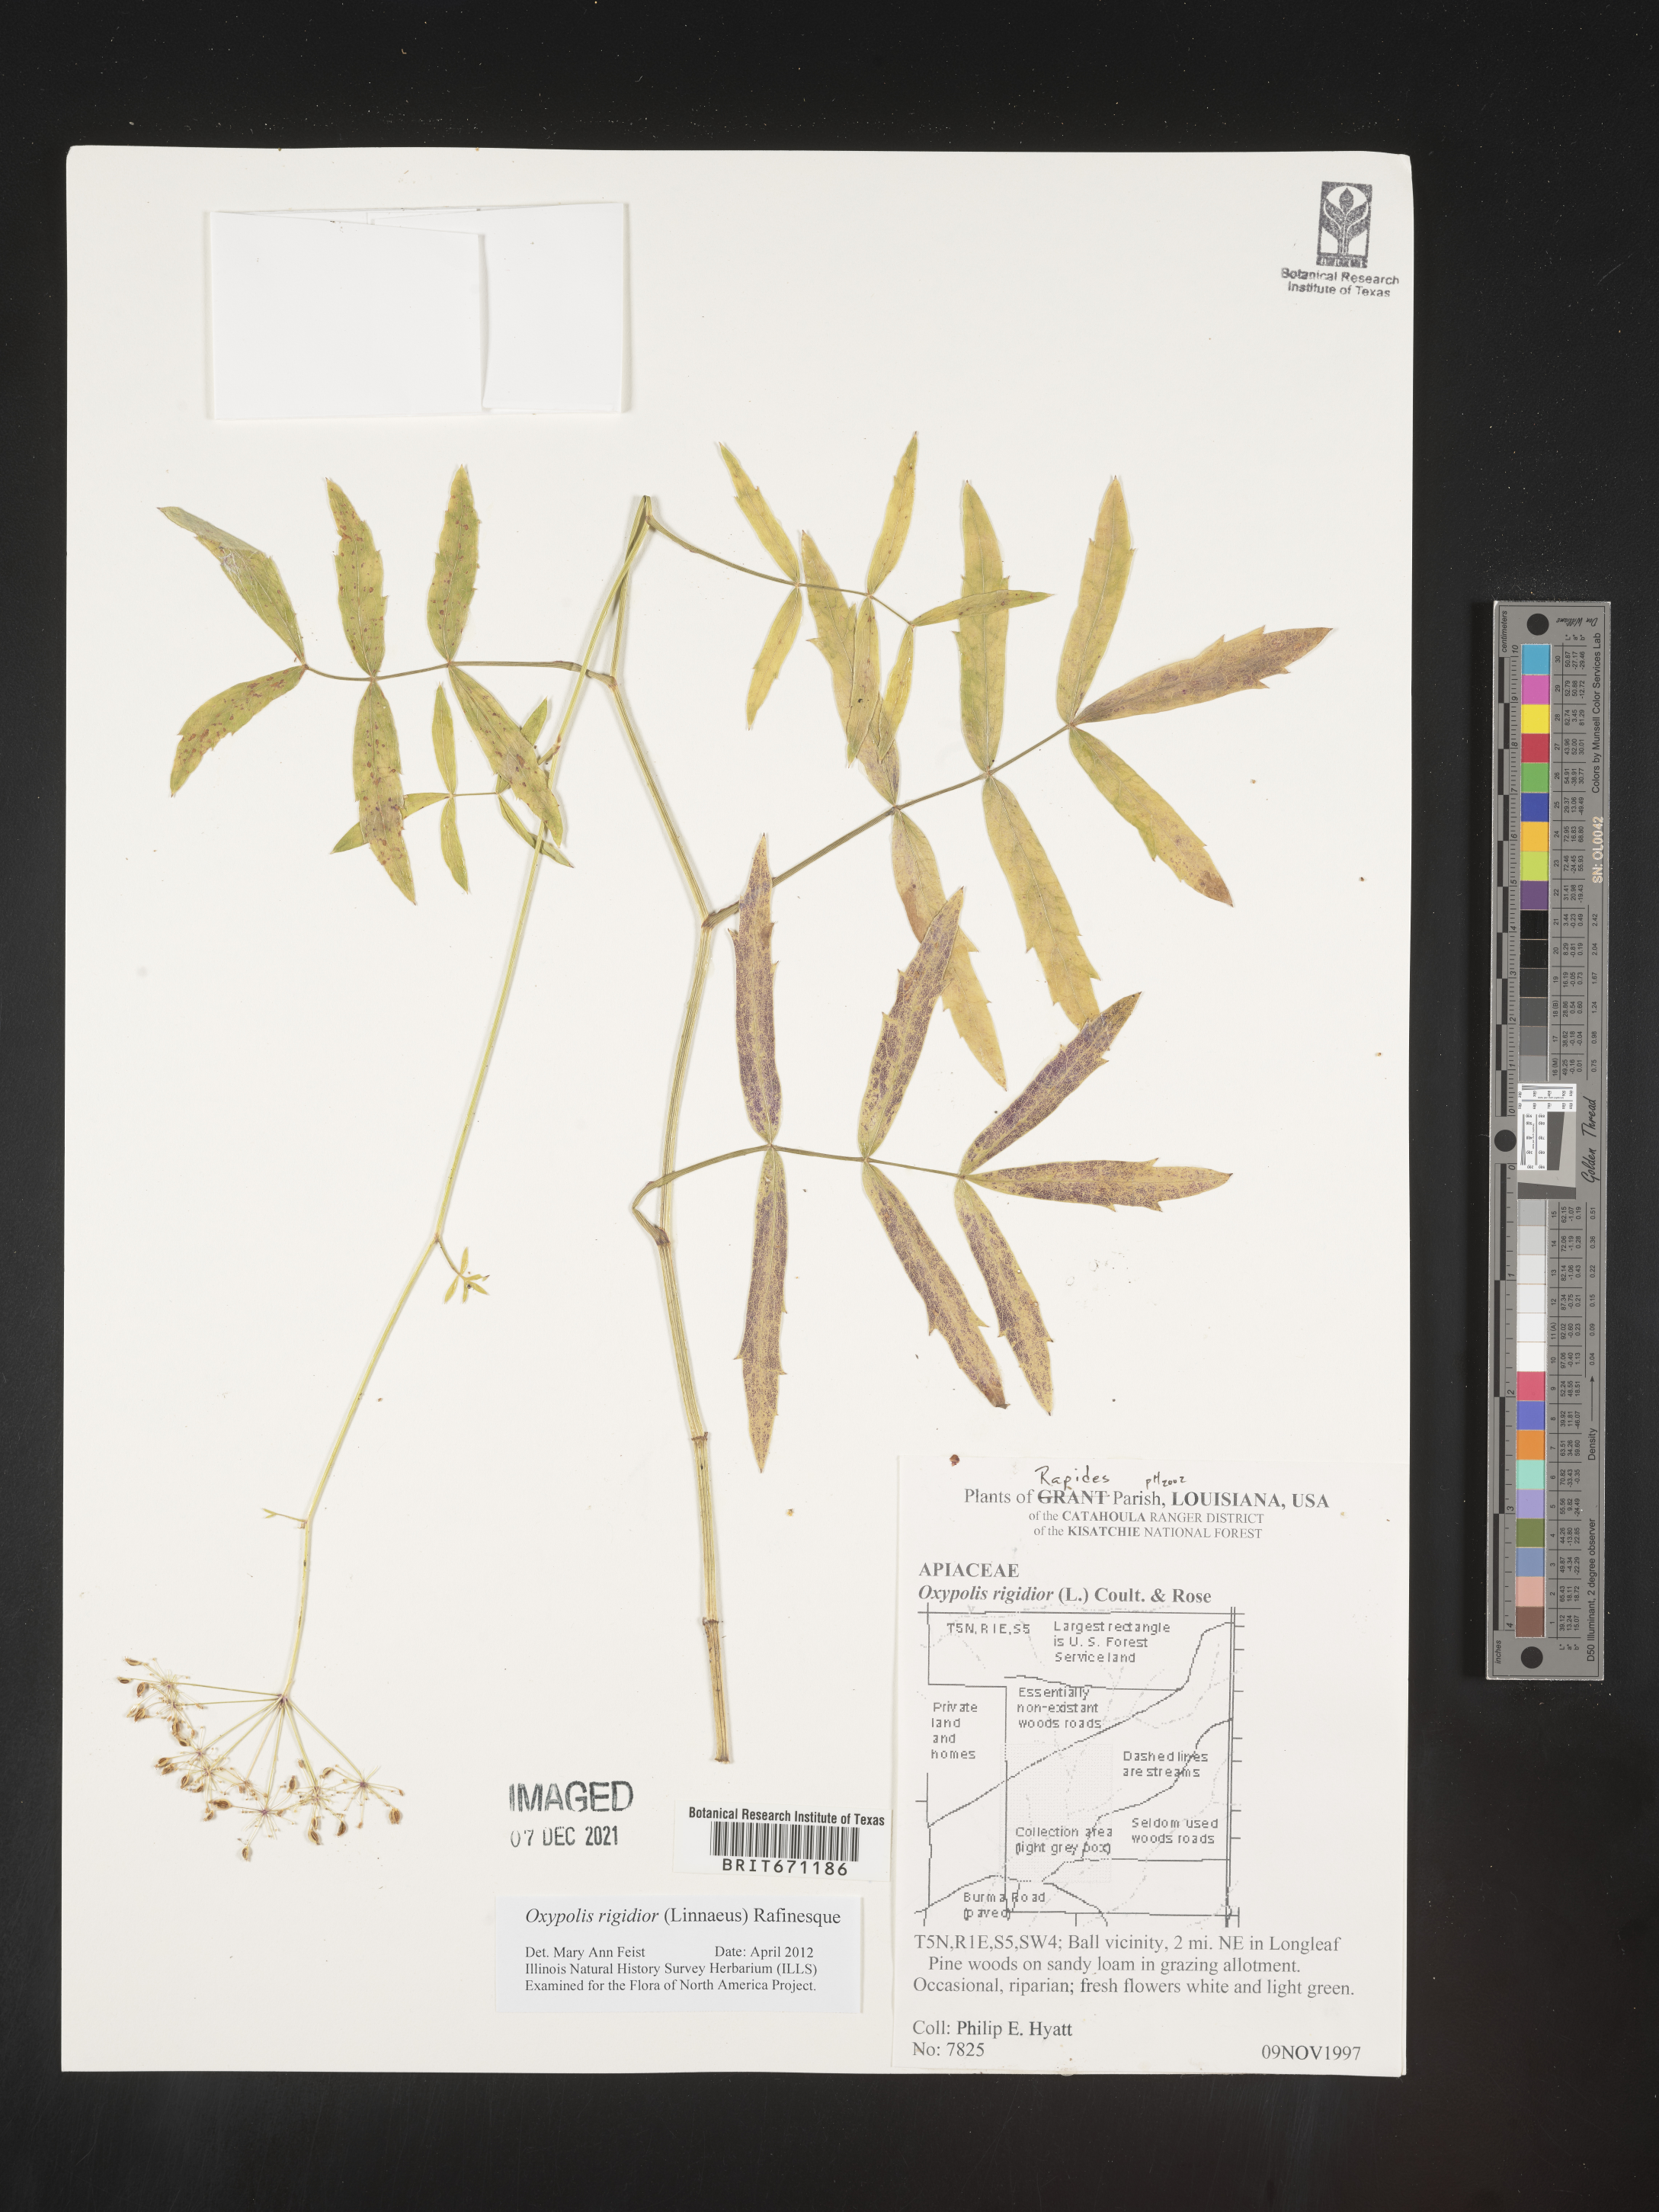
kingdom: Plantae
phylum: Tracheophyta
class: Magnoliopsida
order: Apiales
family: Apiaceae
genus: Oxypolis
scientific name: Oxypolis rigidior
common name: Cowbane
